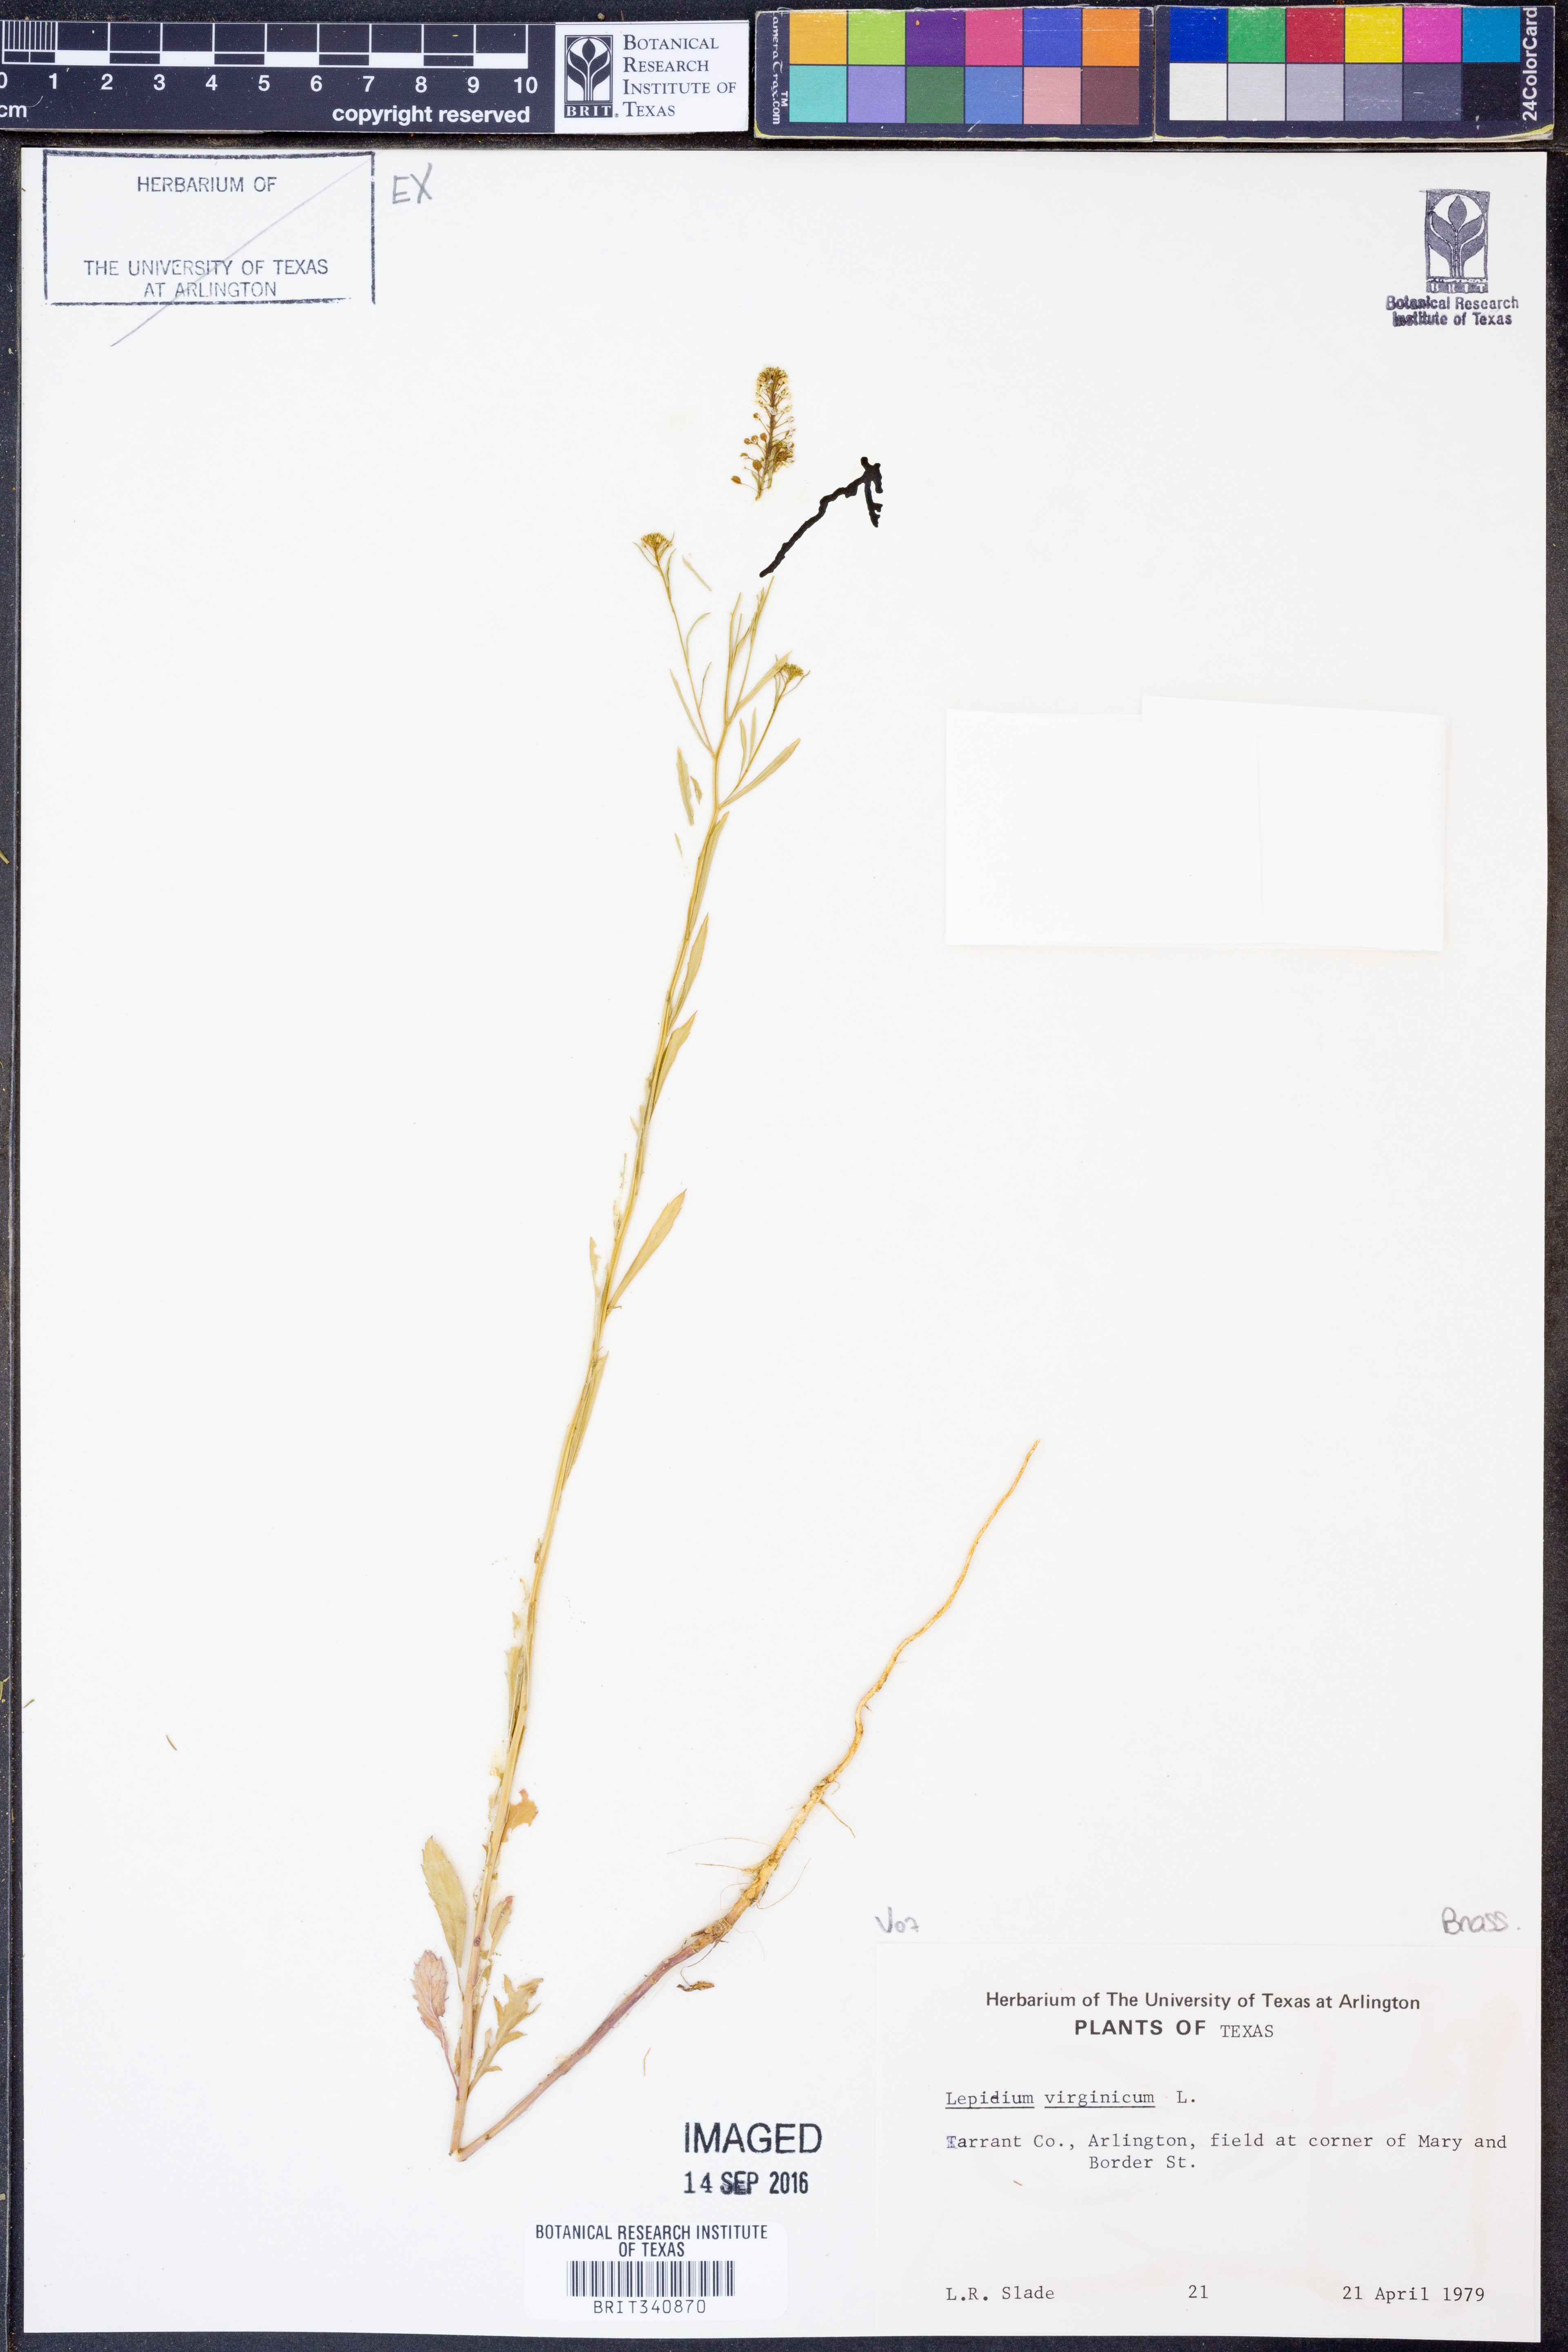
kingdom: Plantae
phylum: Tracheophyta
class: Magnoliopsida
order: Brassicales
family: Brassicaceae
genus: Lepidium
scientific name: Lepidium virginicum
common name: Least pepperwort
